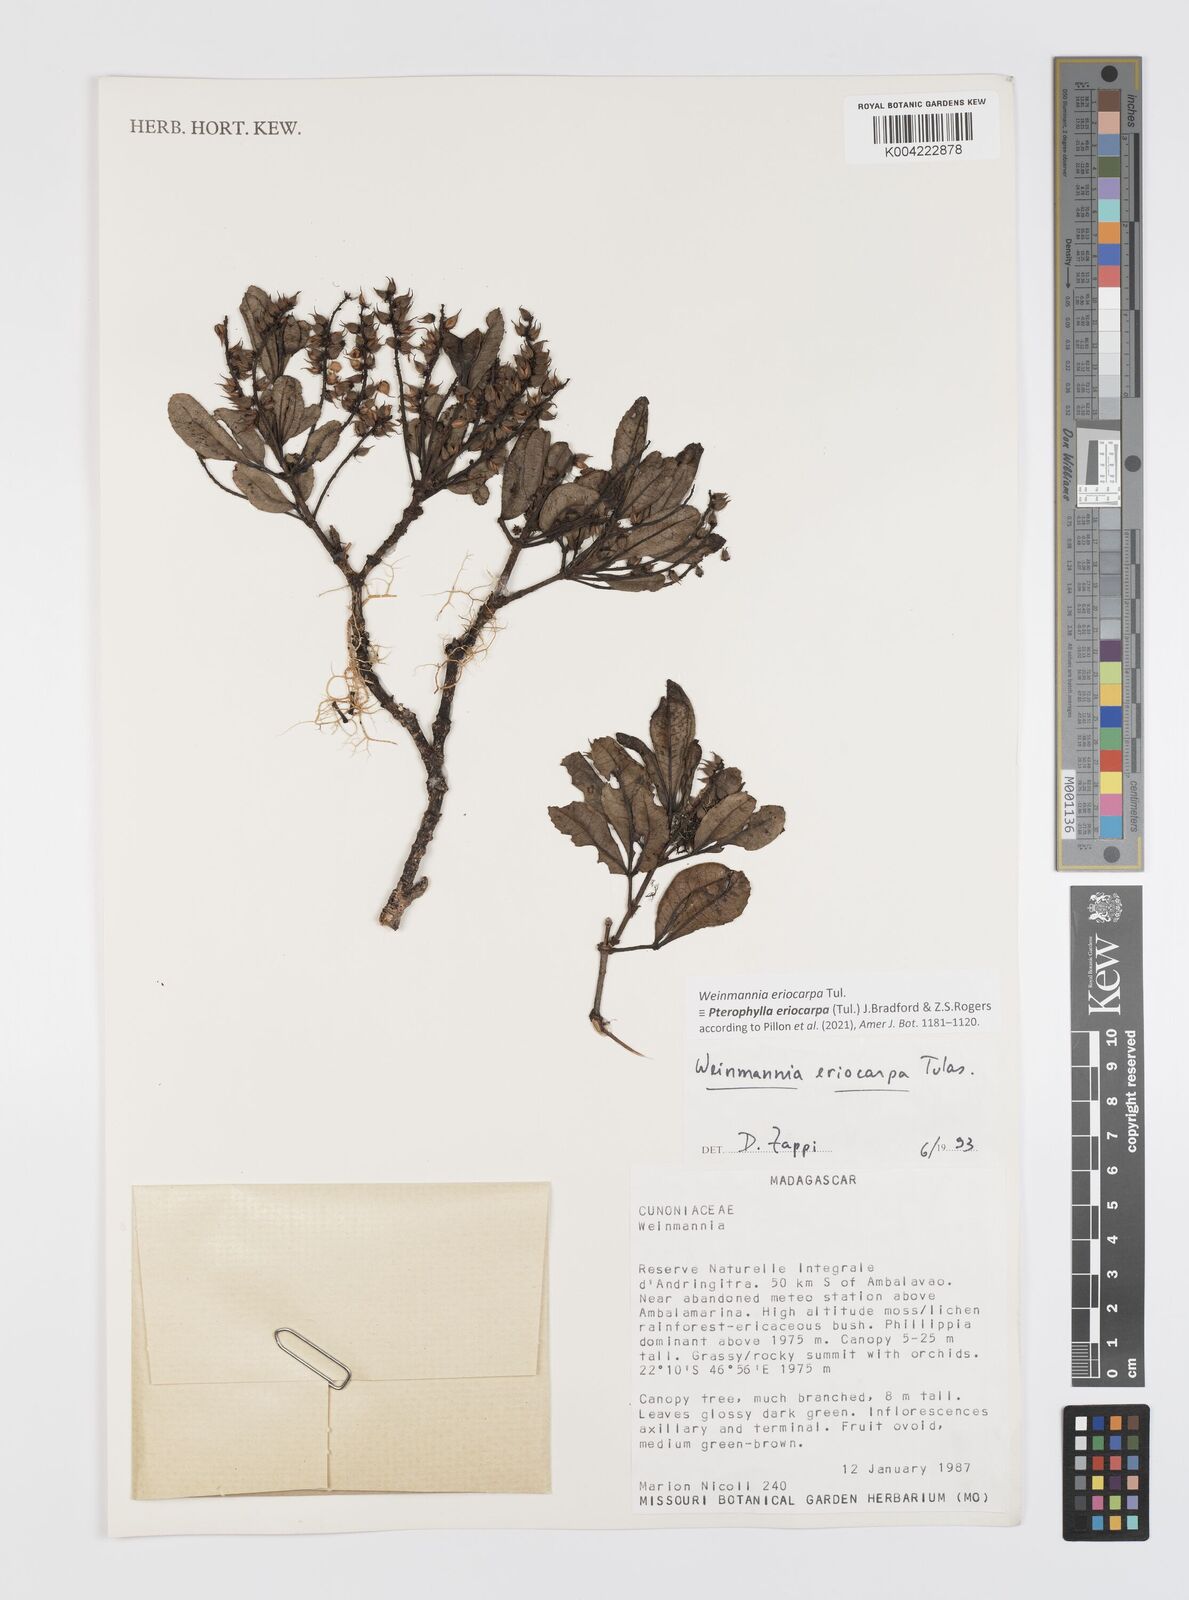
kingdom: Plantae
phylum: Tracheophyta
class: Magnoliopsida
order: Oxalidales
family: Cunoniaceae
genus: Pterophylla
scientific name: Pterophylla eriocarpa
